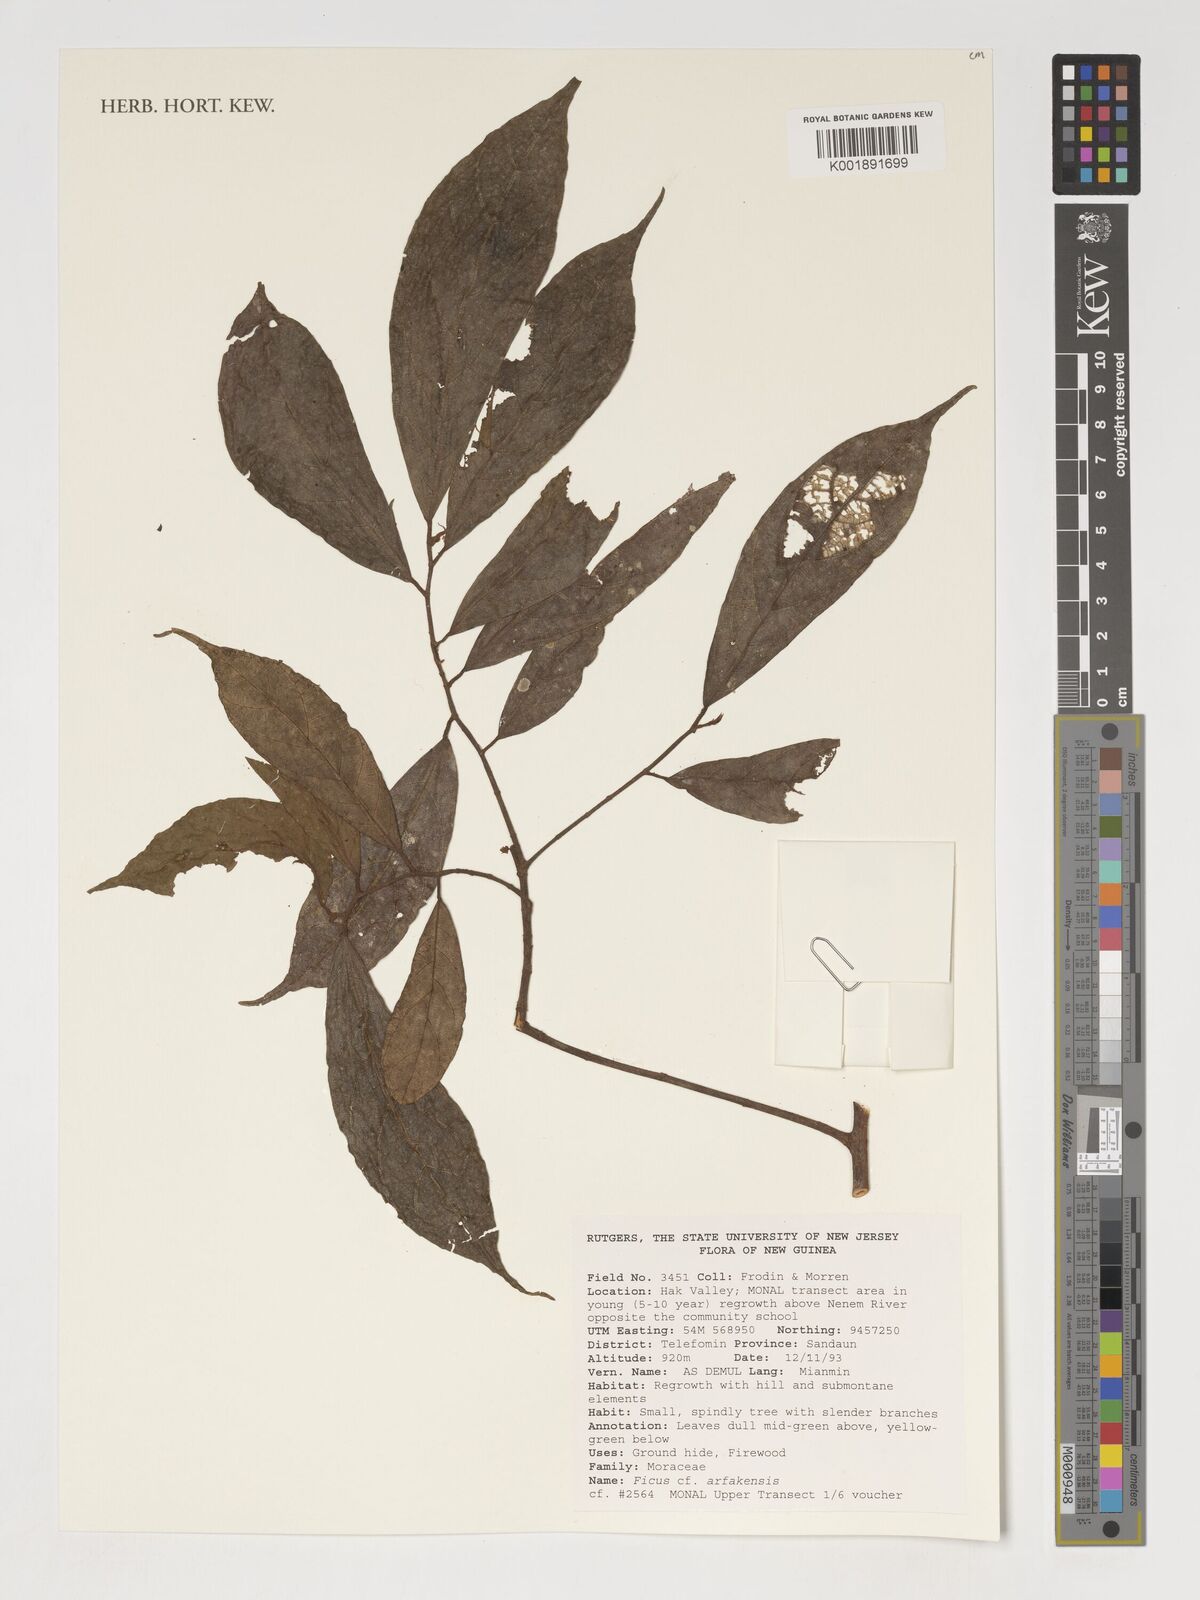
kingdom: Plantae
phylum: Tracheophyta
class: Magnoliopsida
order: Rosales
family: Moraceae
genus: Ficus
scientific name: Ficus ribes
